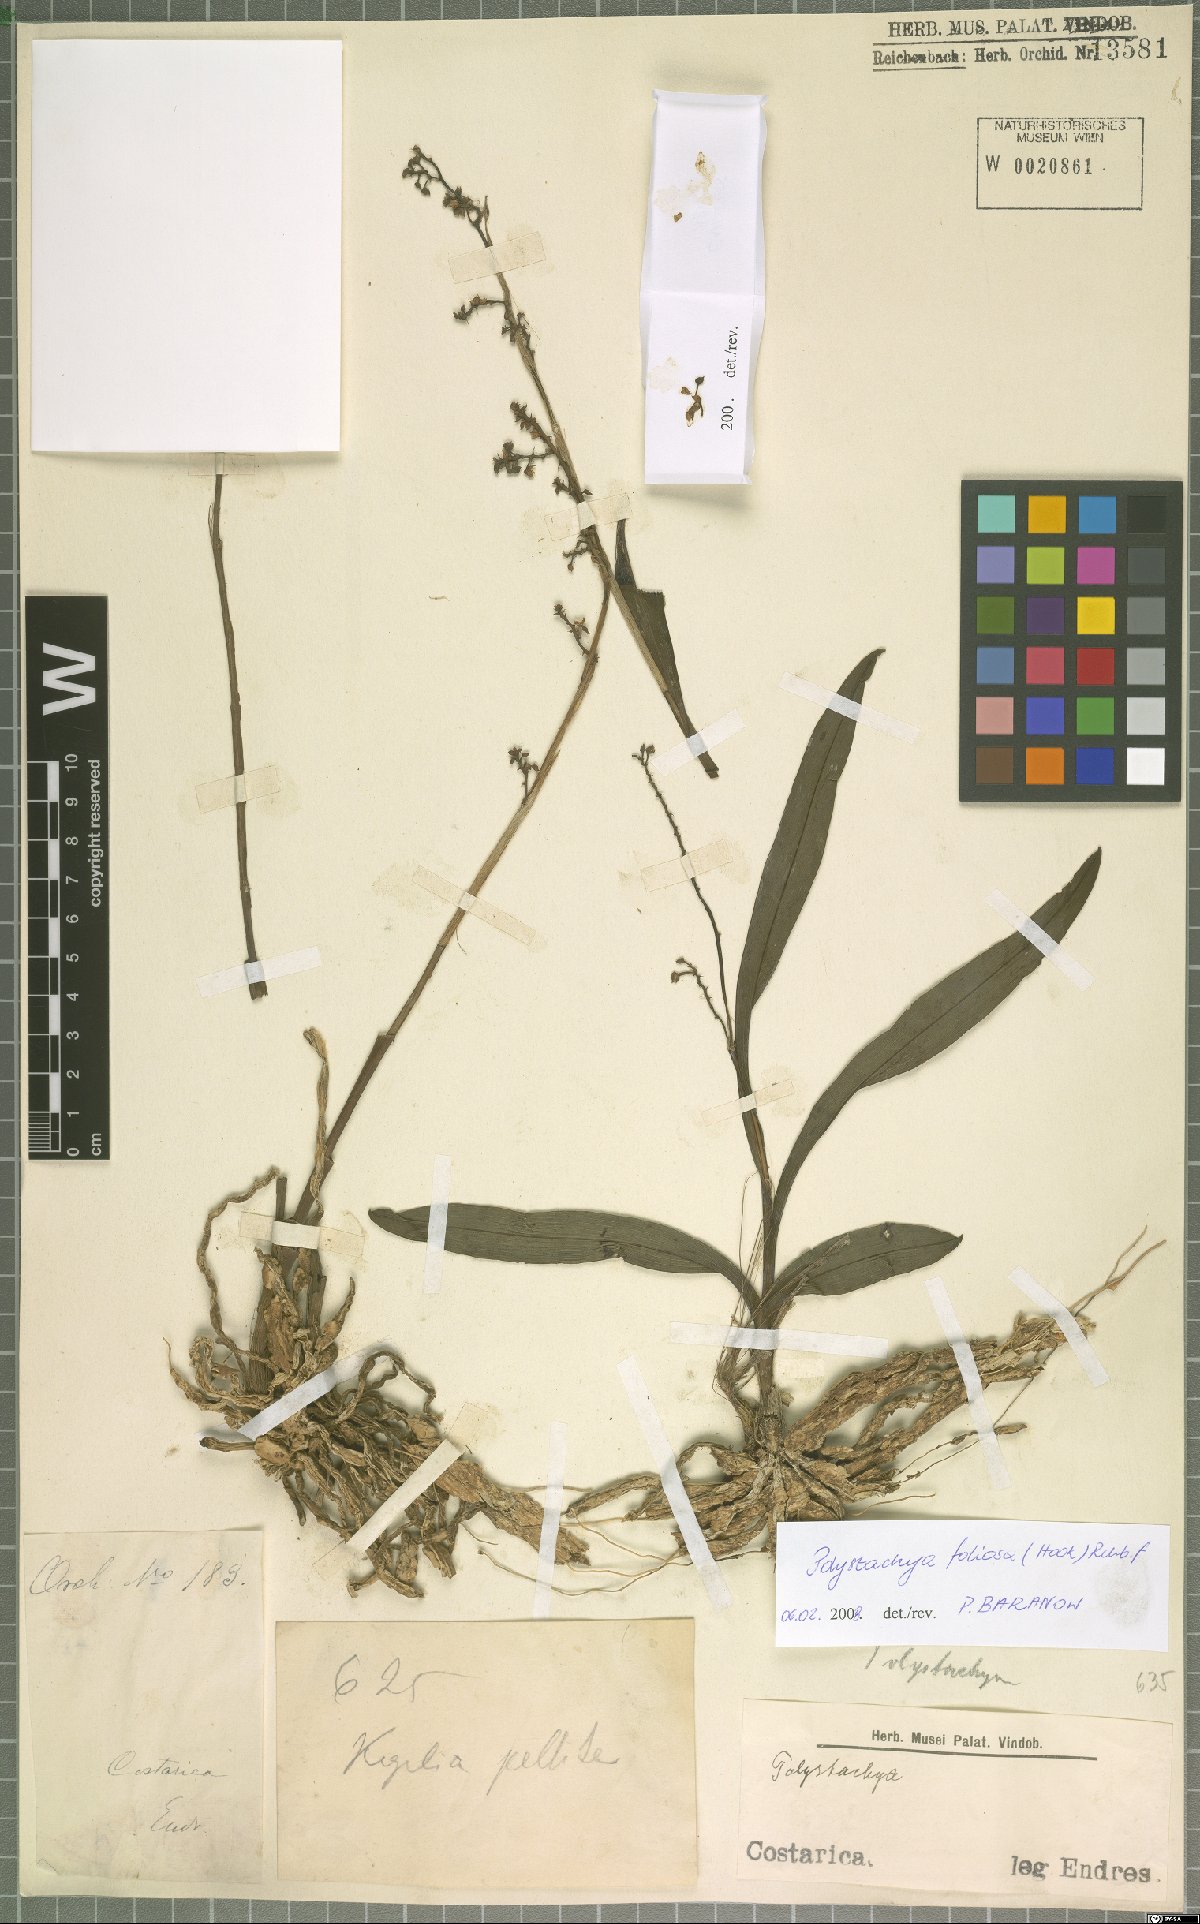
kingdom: Plantae
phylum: Tracheophyta
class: Liliopsida
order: Asparagales
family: Orchidaceae
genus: Polystachya
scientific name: Polystachya foliosa
